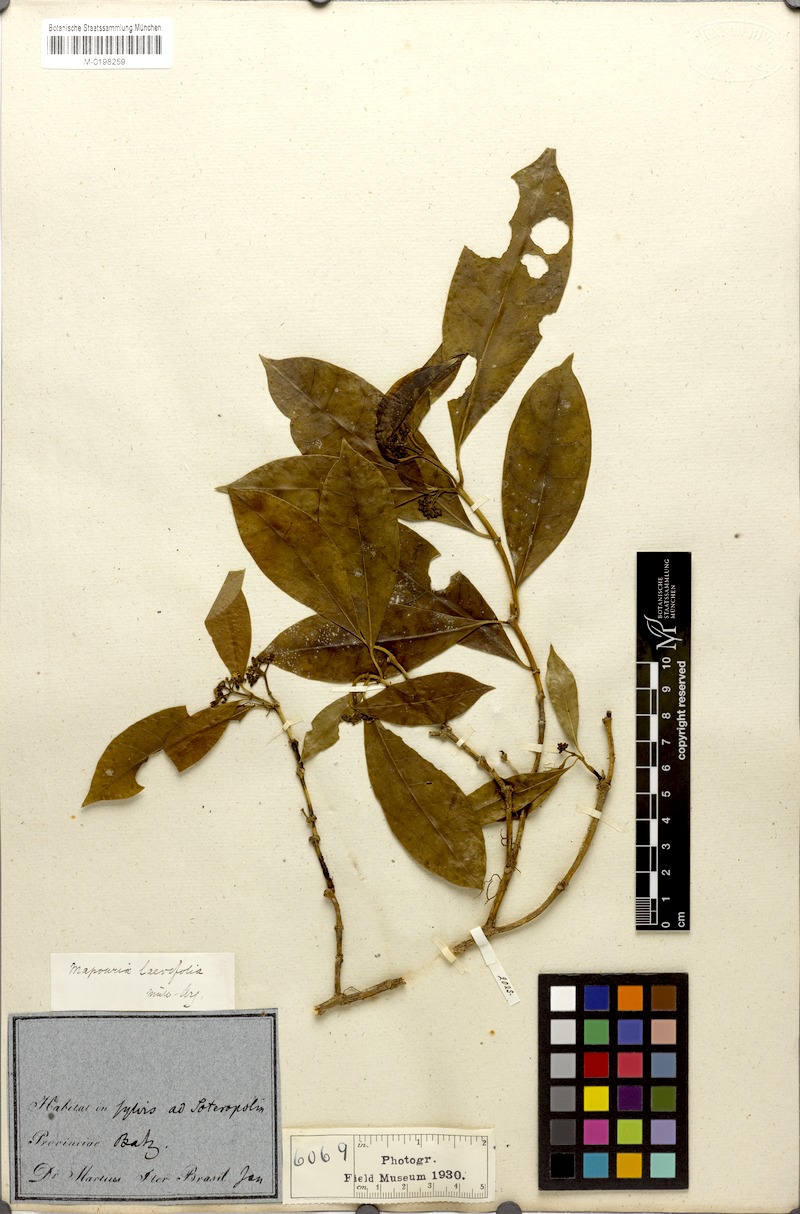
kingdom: Plantae
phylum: Tracheophyta
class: Magnoliopsida
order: Gentianales
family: Rubiaceae
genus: Psychotria
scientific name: Psychotria Mapouria laevifolia
